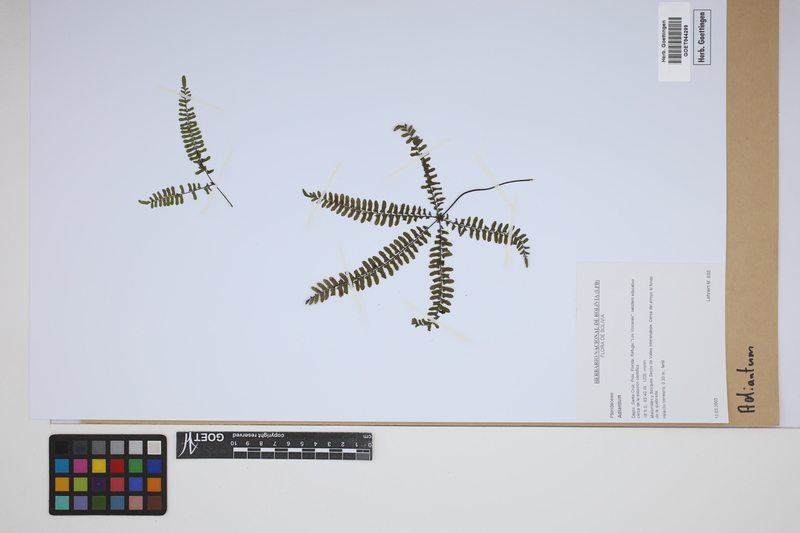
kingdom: Plantae
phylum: Tracheophyta
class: Polypodiopsida
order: Polypodiales
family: Pteridaceae
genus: Adiantum
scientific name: Adiantum
